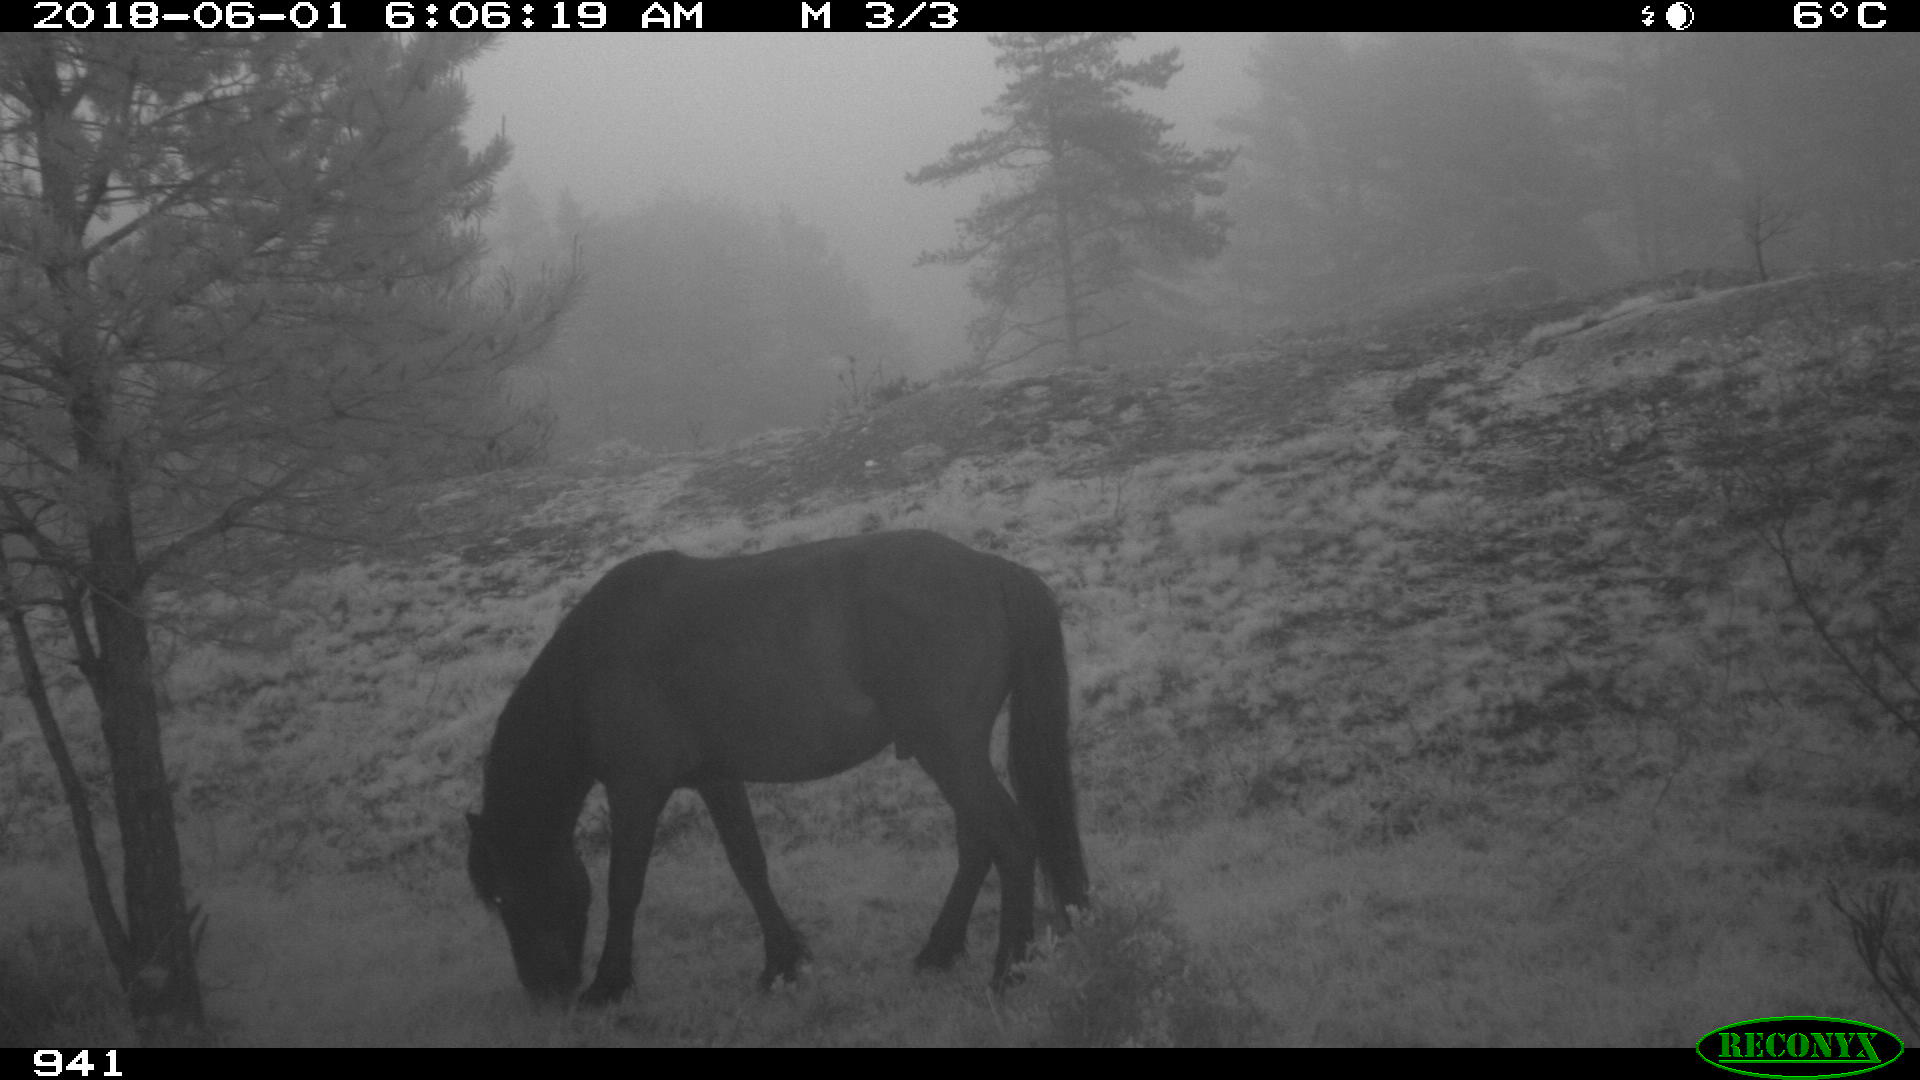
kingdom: Animalia
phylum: Chordata
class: Mammalia
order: Perissodactyla
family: Equidae
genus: Equus
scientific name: Equus caballus
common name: Horse
